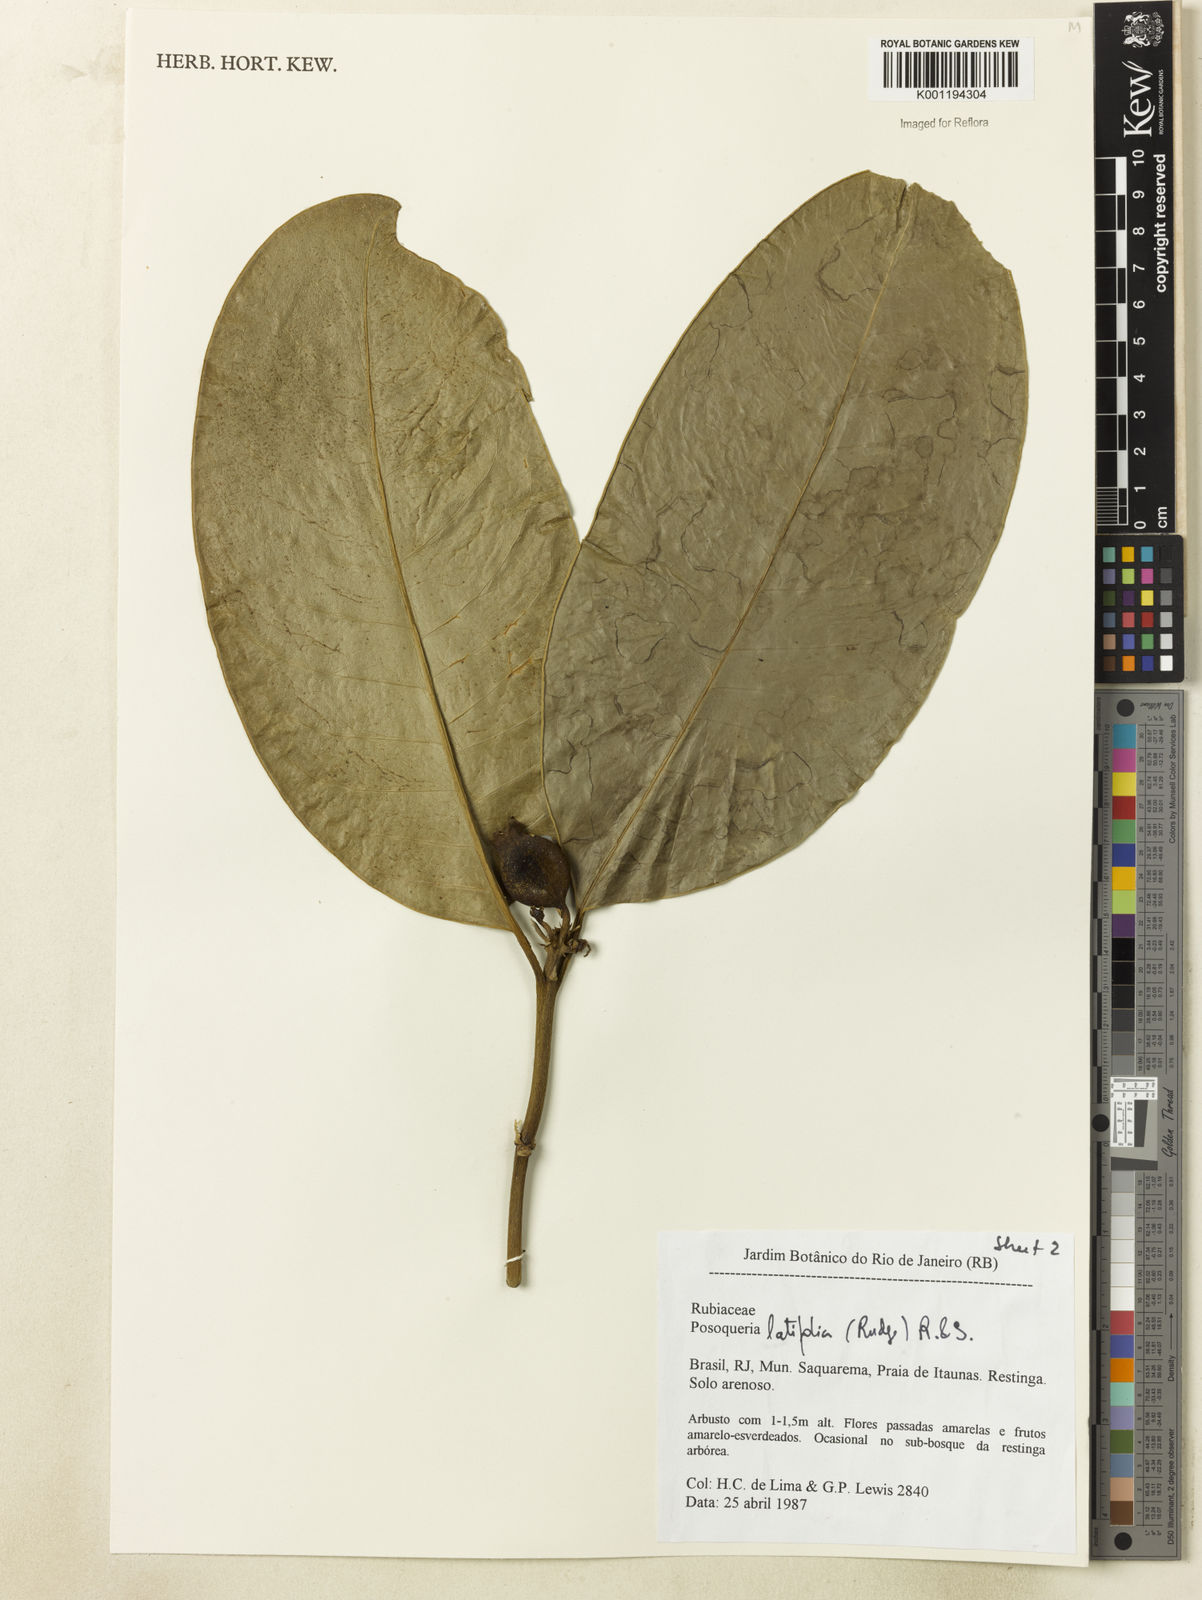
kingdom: Plantae
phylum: Tracheophyta
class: Magnoliopsida
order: Gentianales
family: Rubiaceae
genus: Posoqueria
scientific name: Posoqueria latifolia
